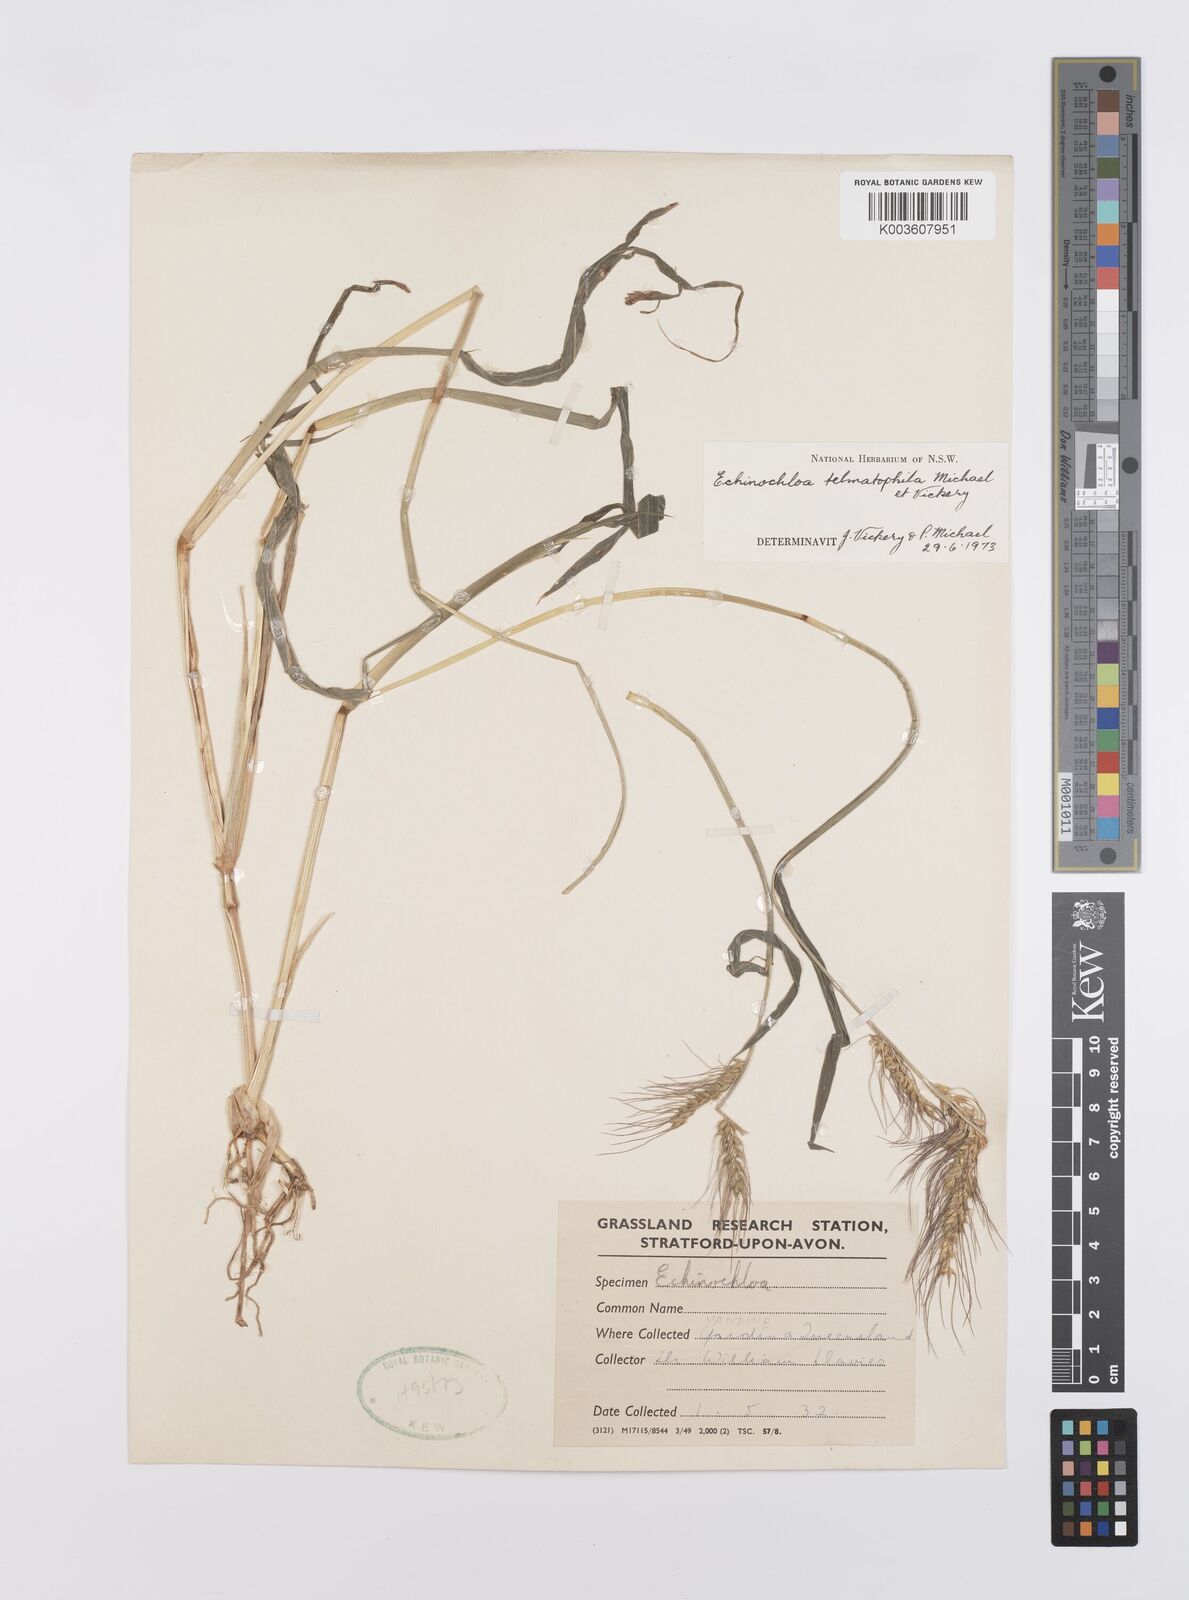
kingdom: Plantae
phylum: Tracheophyta
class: Liliopsida
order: Poales
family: Poaceae
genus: Echinochloa
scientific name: Echinochloa crus-galli
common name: Cockspur
